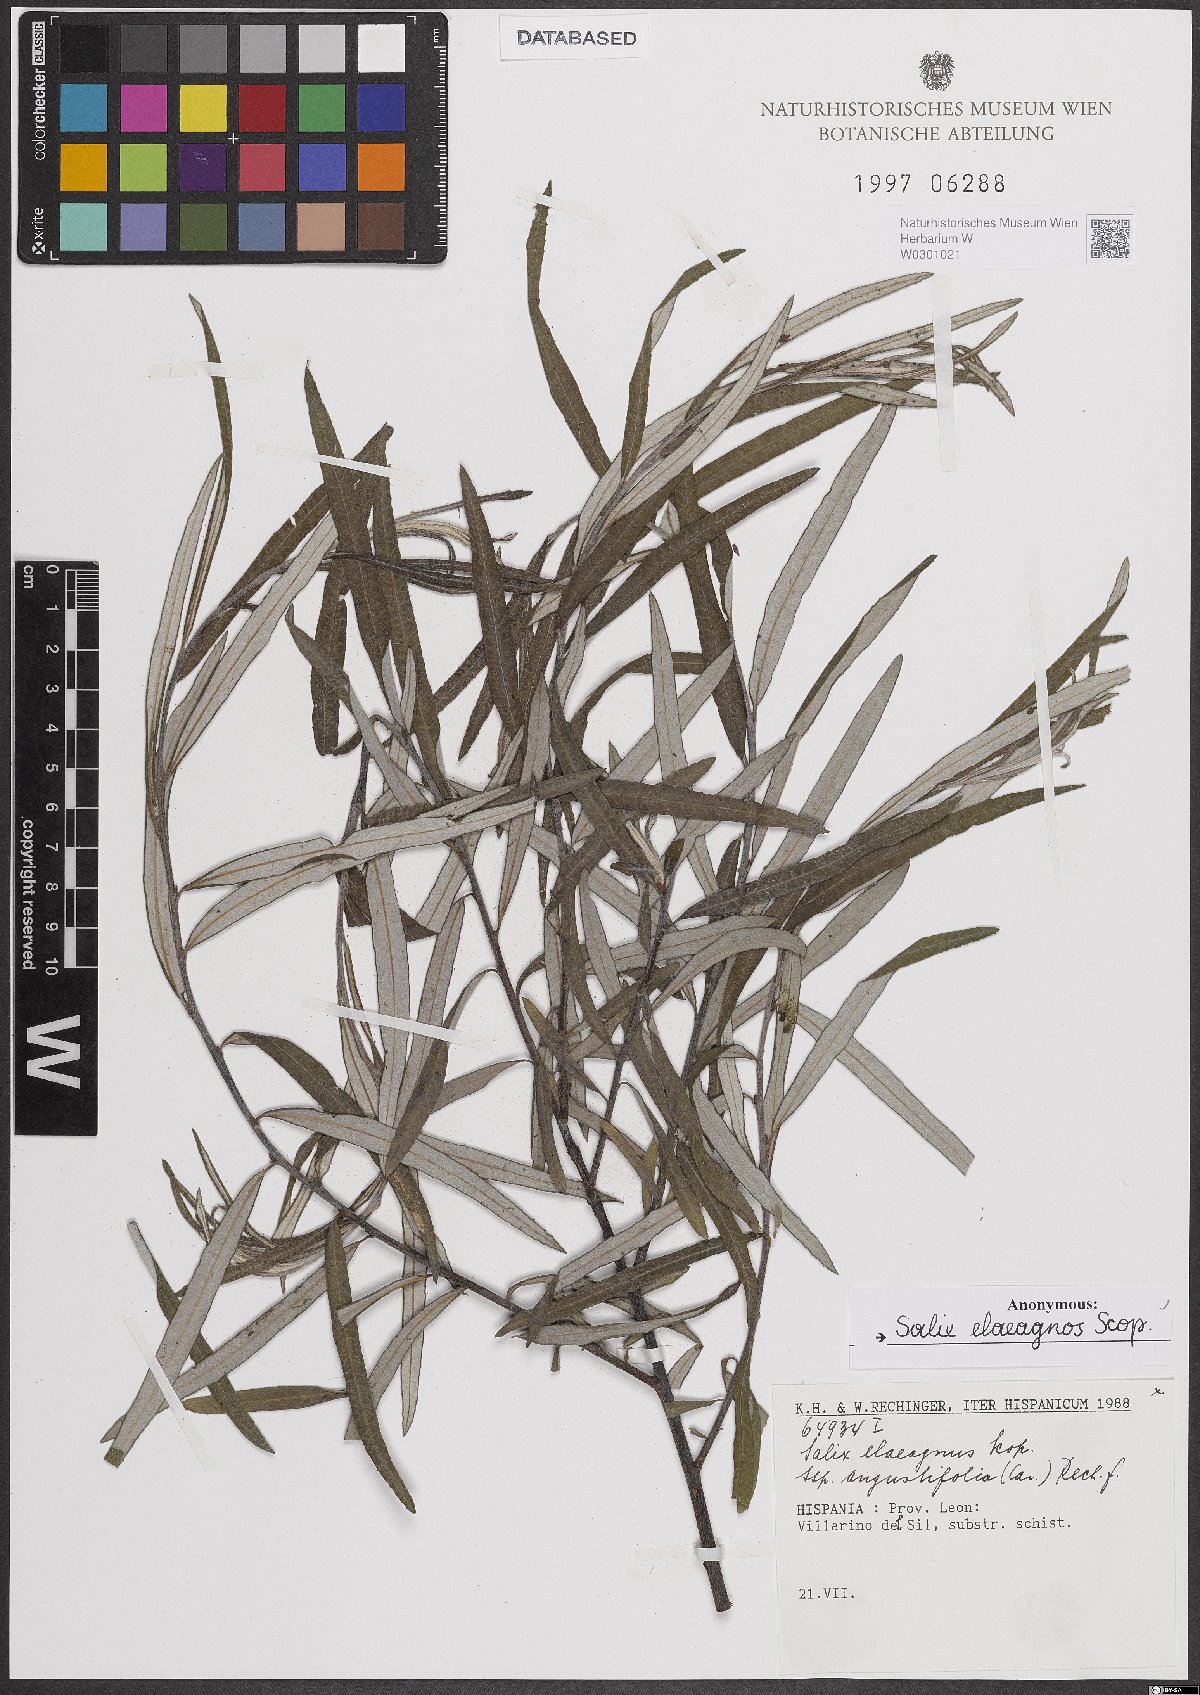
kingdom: Plantae
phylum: Tracheophyta
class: Magnoliopsida
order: Malpighiales
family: Salicaceae
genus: Salix
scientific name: Salix eleagnos
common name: Elaeagnus willow
